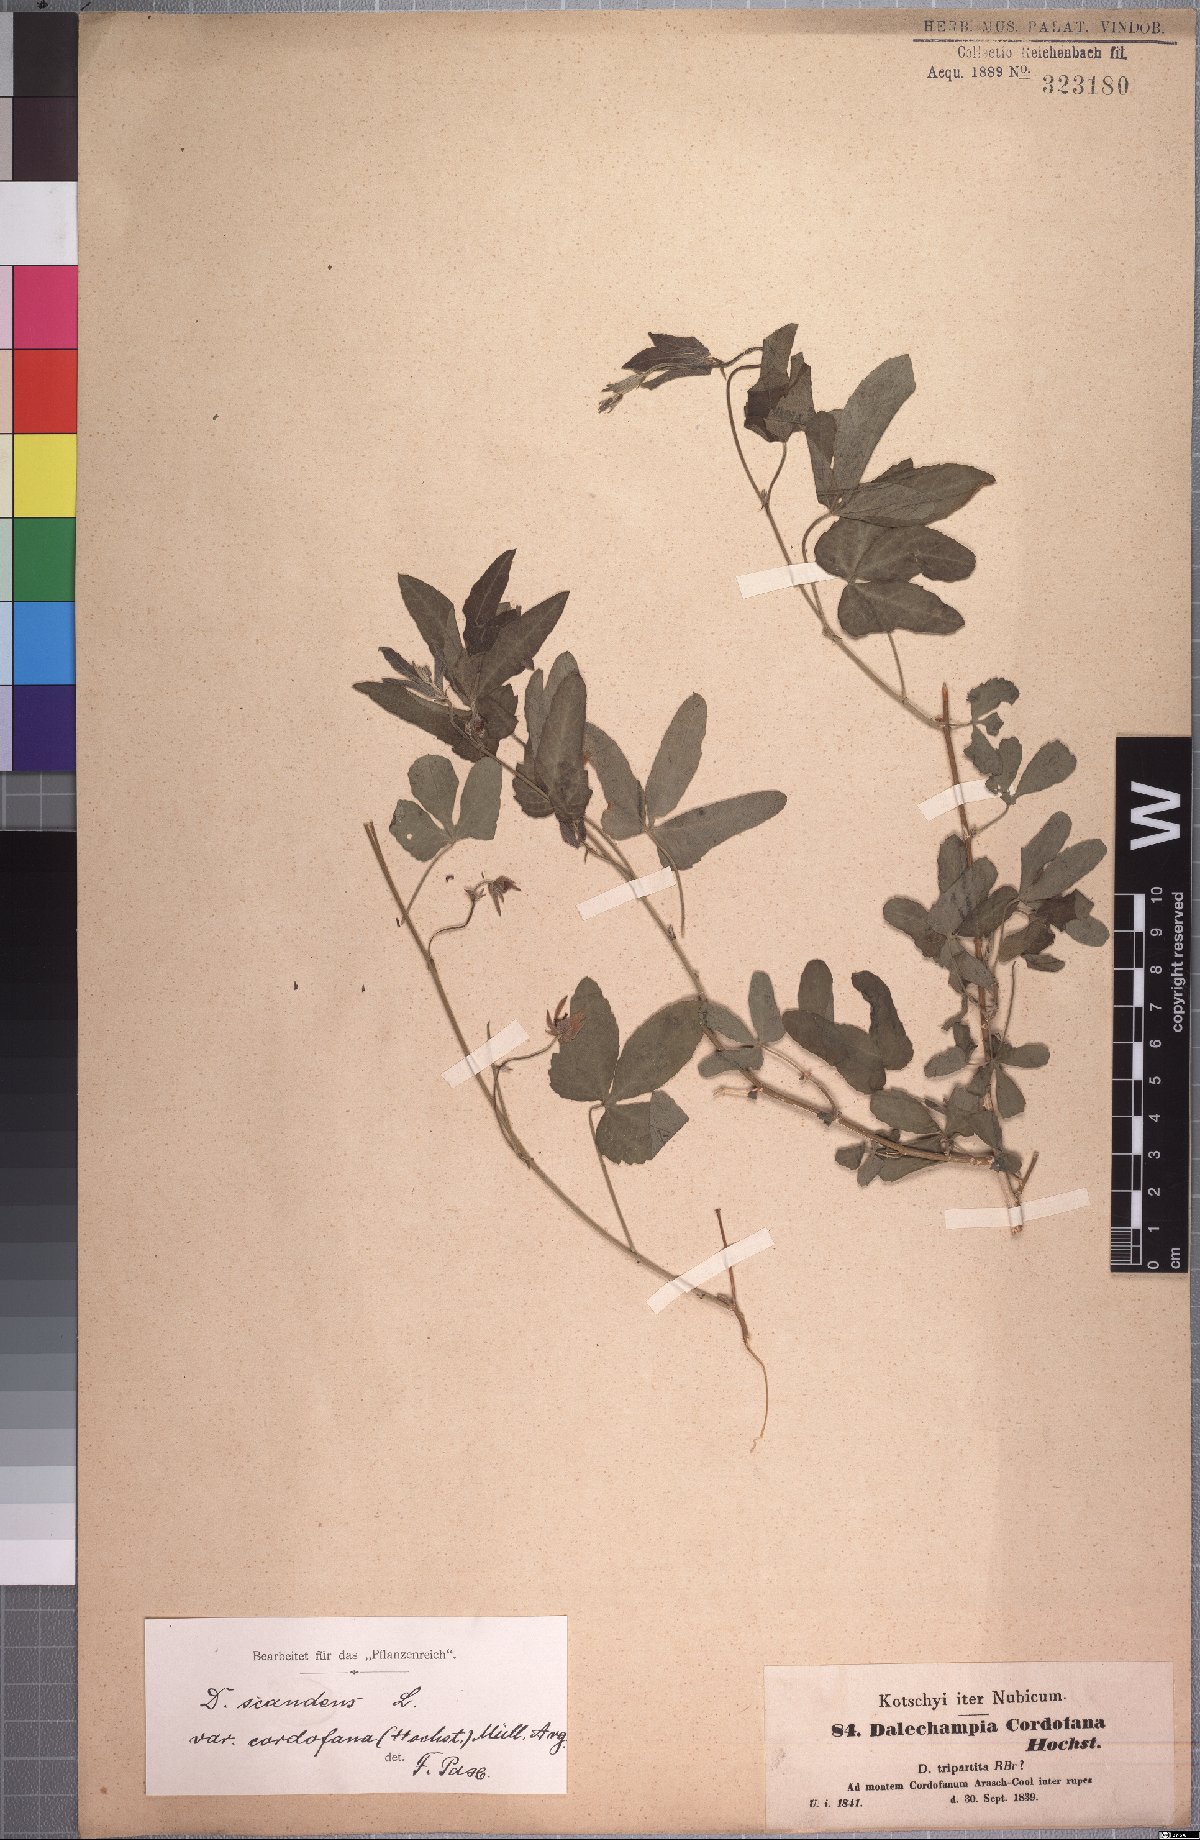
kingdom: Plantae
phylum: Tracheophyta
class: Magnoliopsida
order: Malpighiales
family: Euphorbiaceae
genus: Dalechampia
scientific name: Dalechampia scandens
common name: Spurgecreeper
